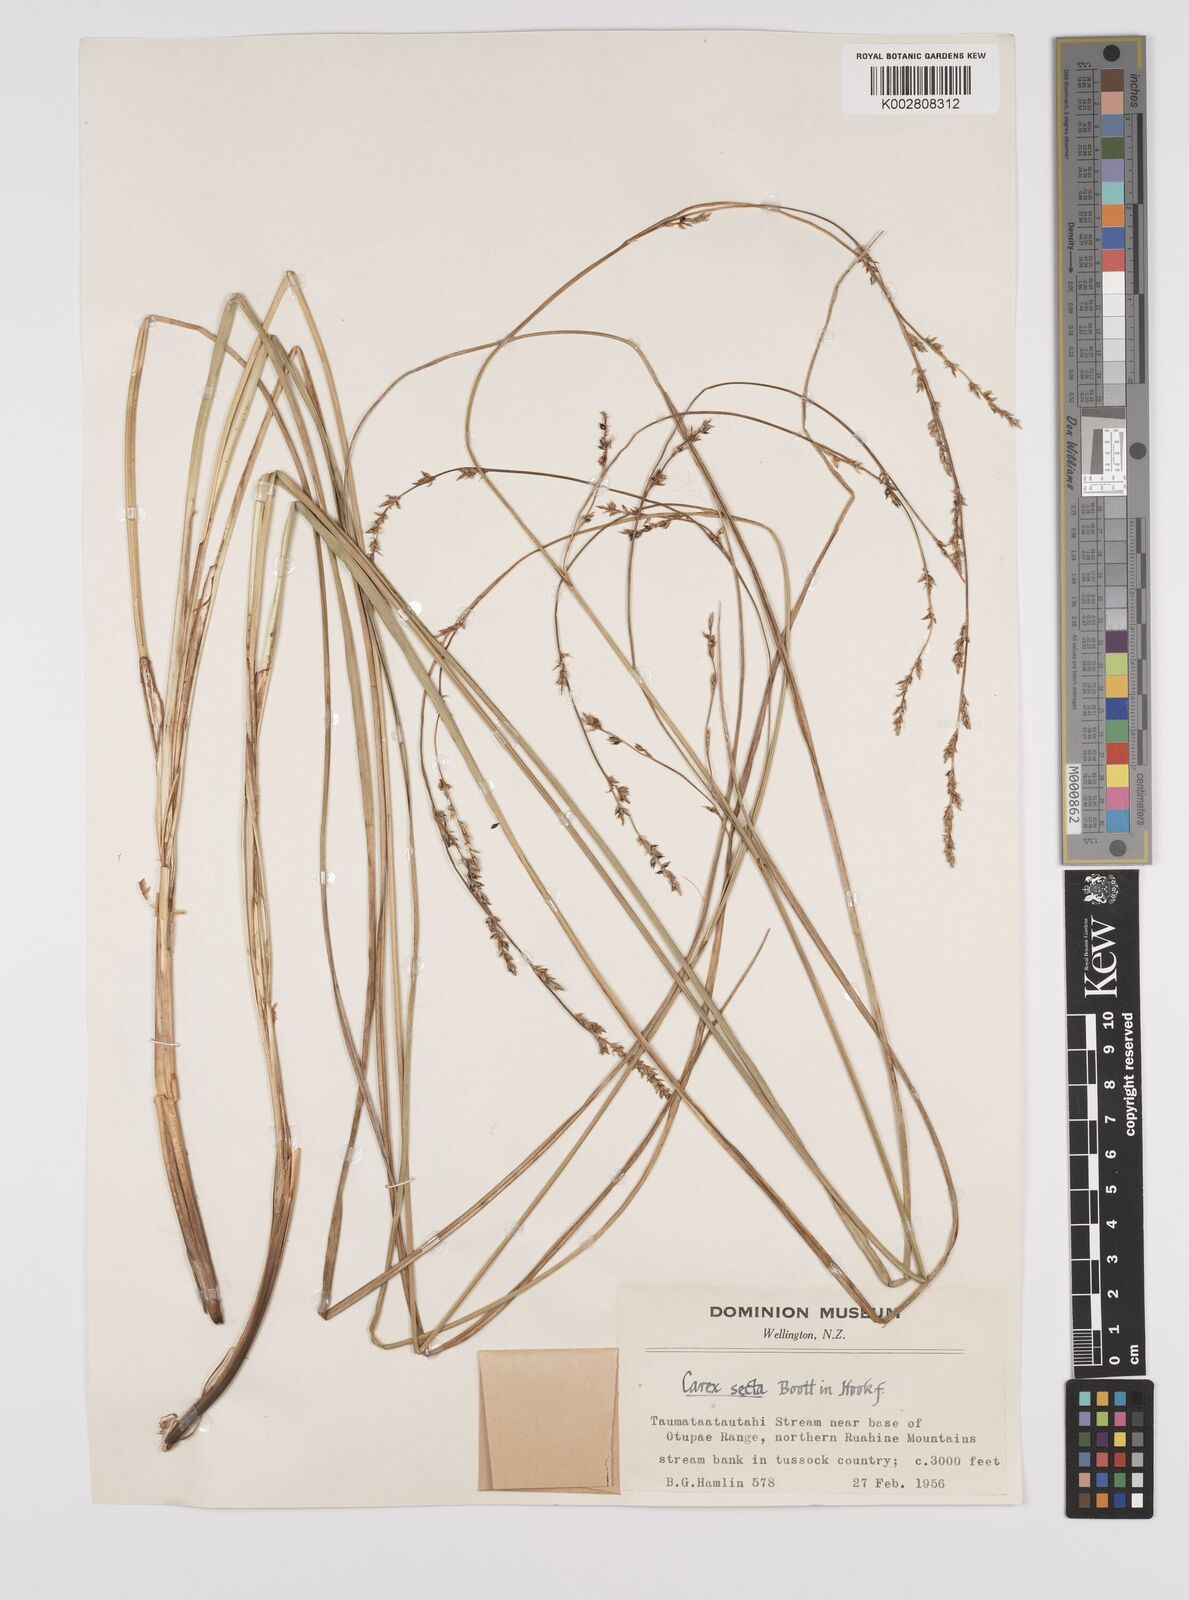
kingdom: Plantae
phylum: Tracheophyta
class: Liliopsida
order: Poales
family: Cyperaceae
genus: Carex
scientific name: Carex appressa
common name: Tussock sedge
